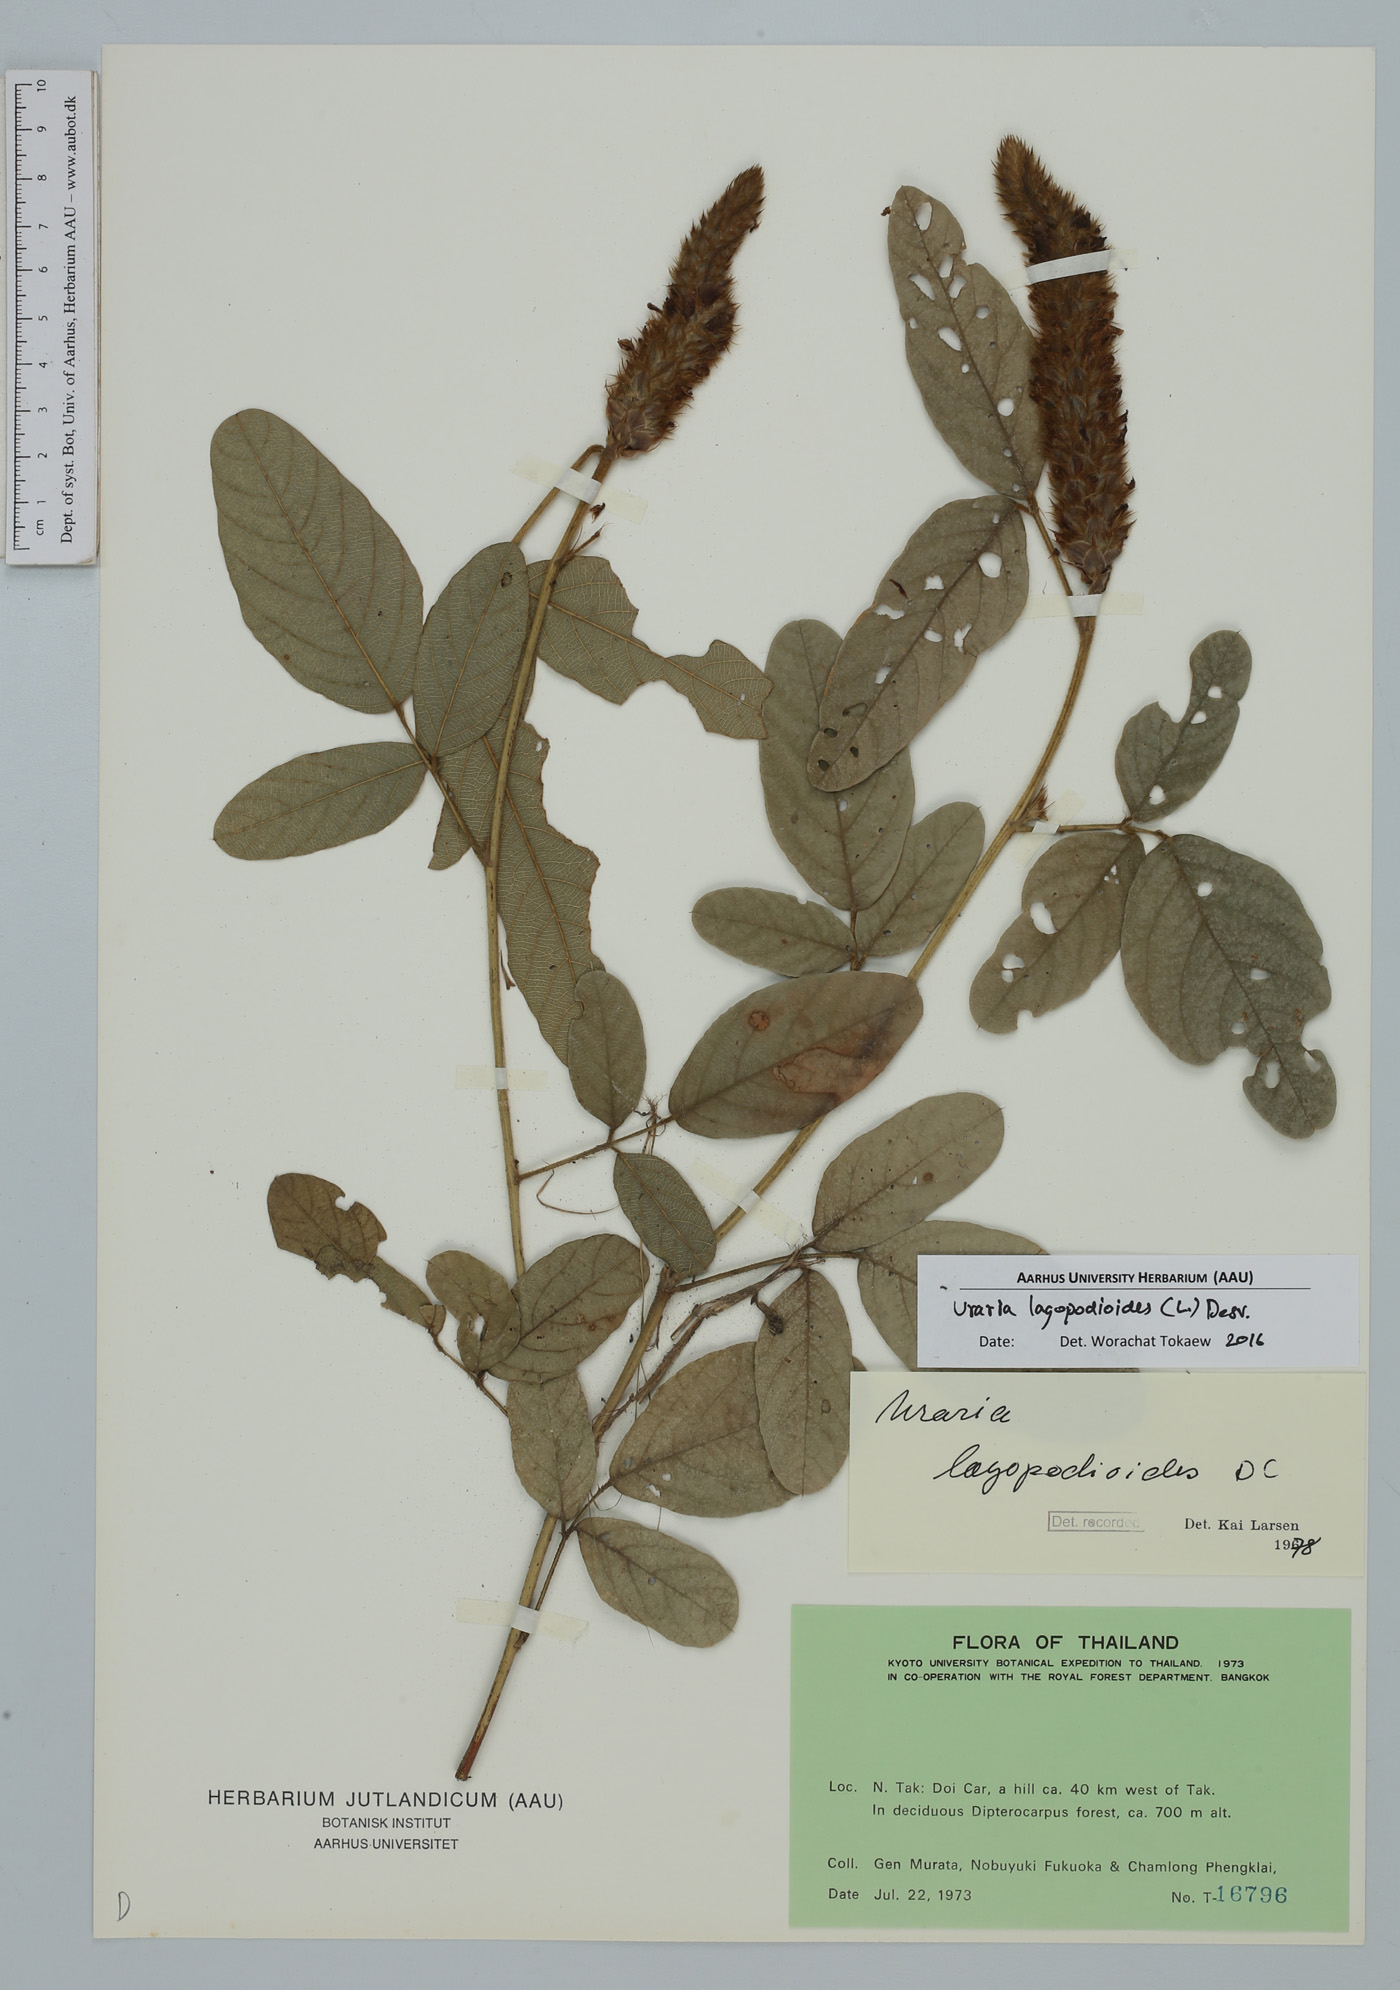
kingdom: Plantae
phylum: Tracheophyta
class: Magnoliopsida
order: Fabales
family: Fabaceae
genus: Uraria
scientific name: Uraria lagopodioides
